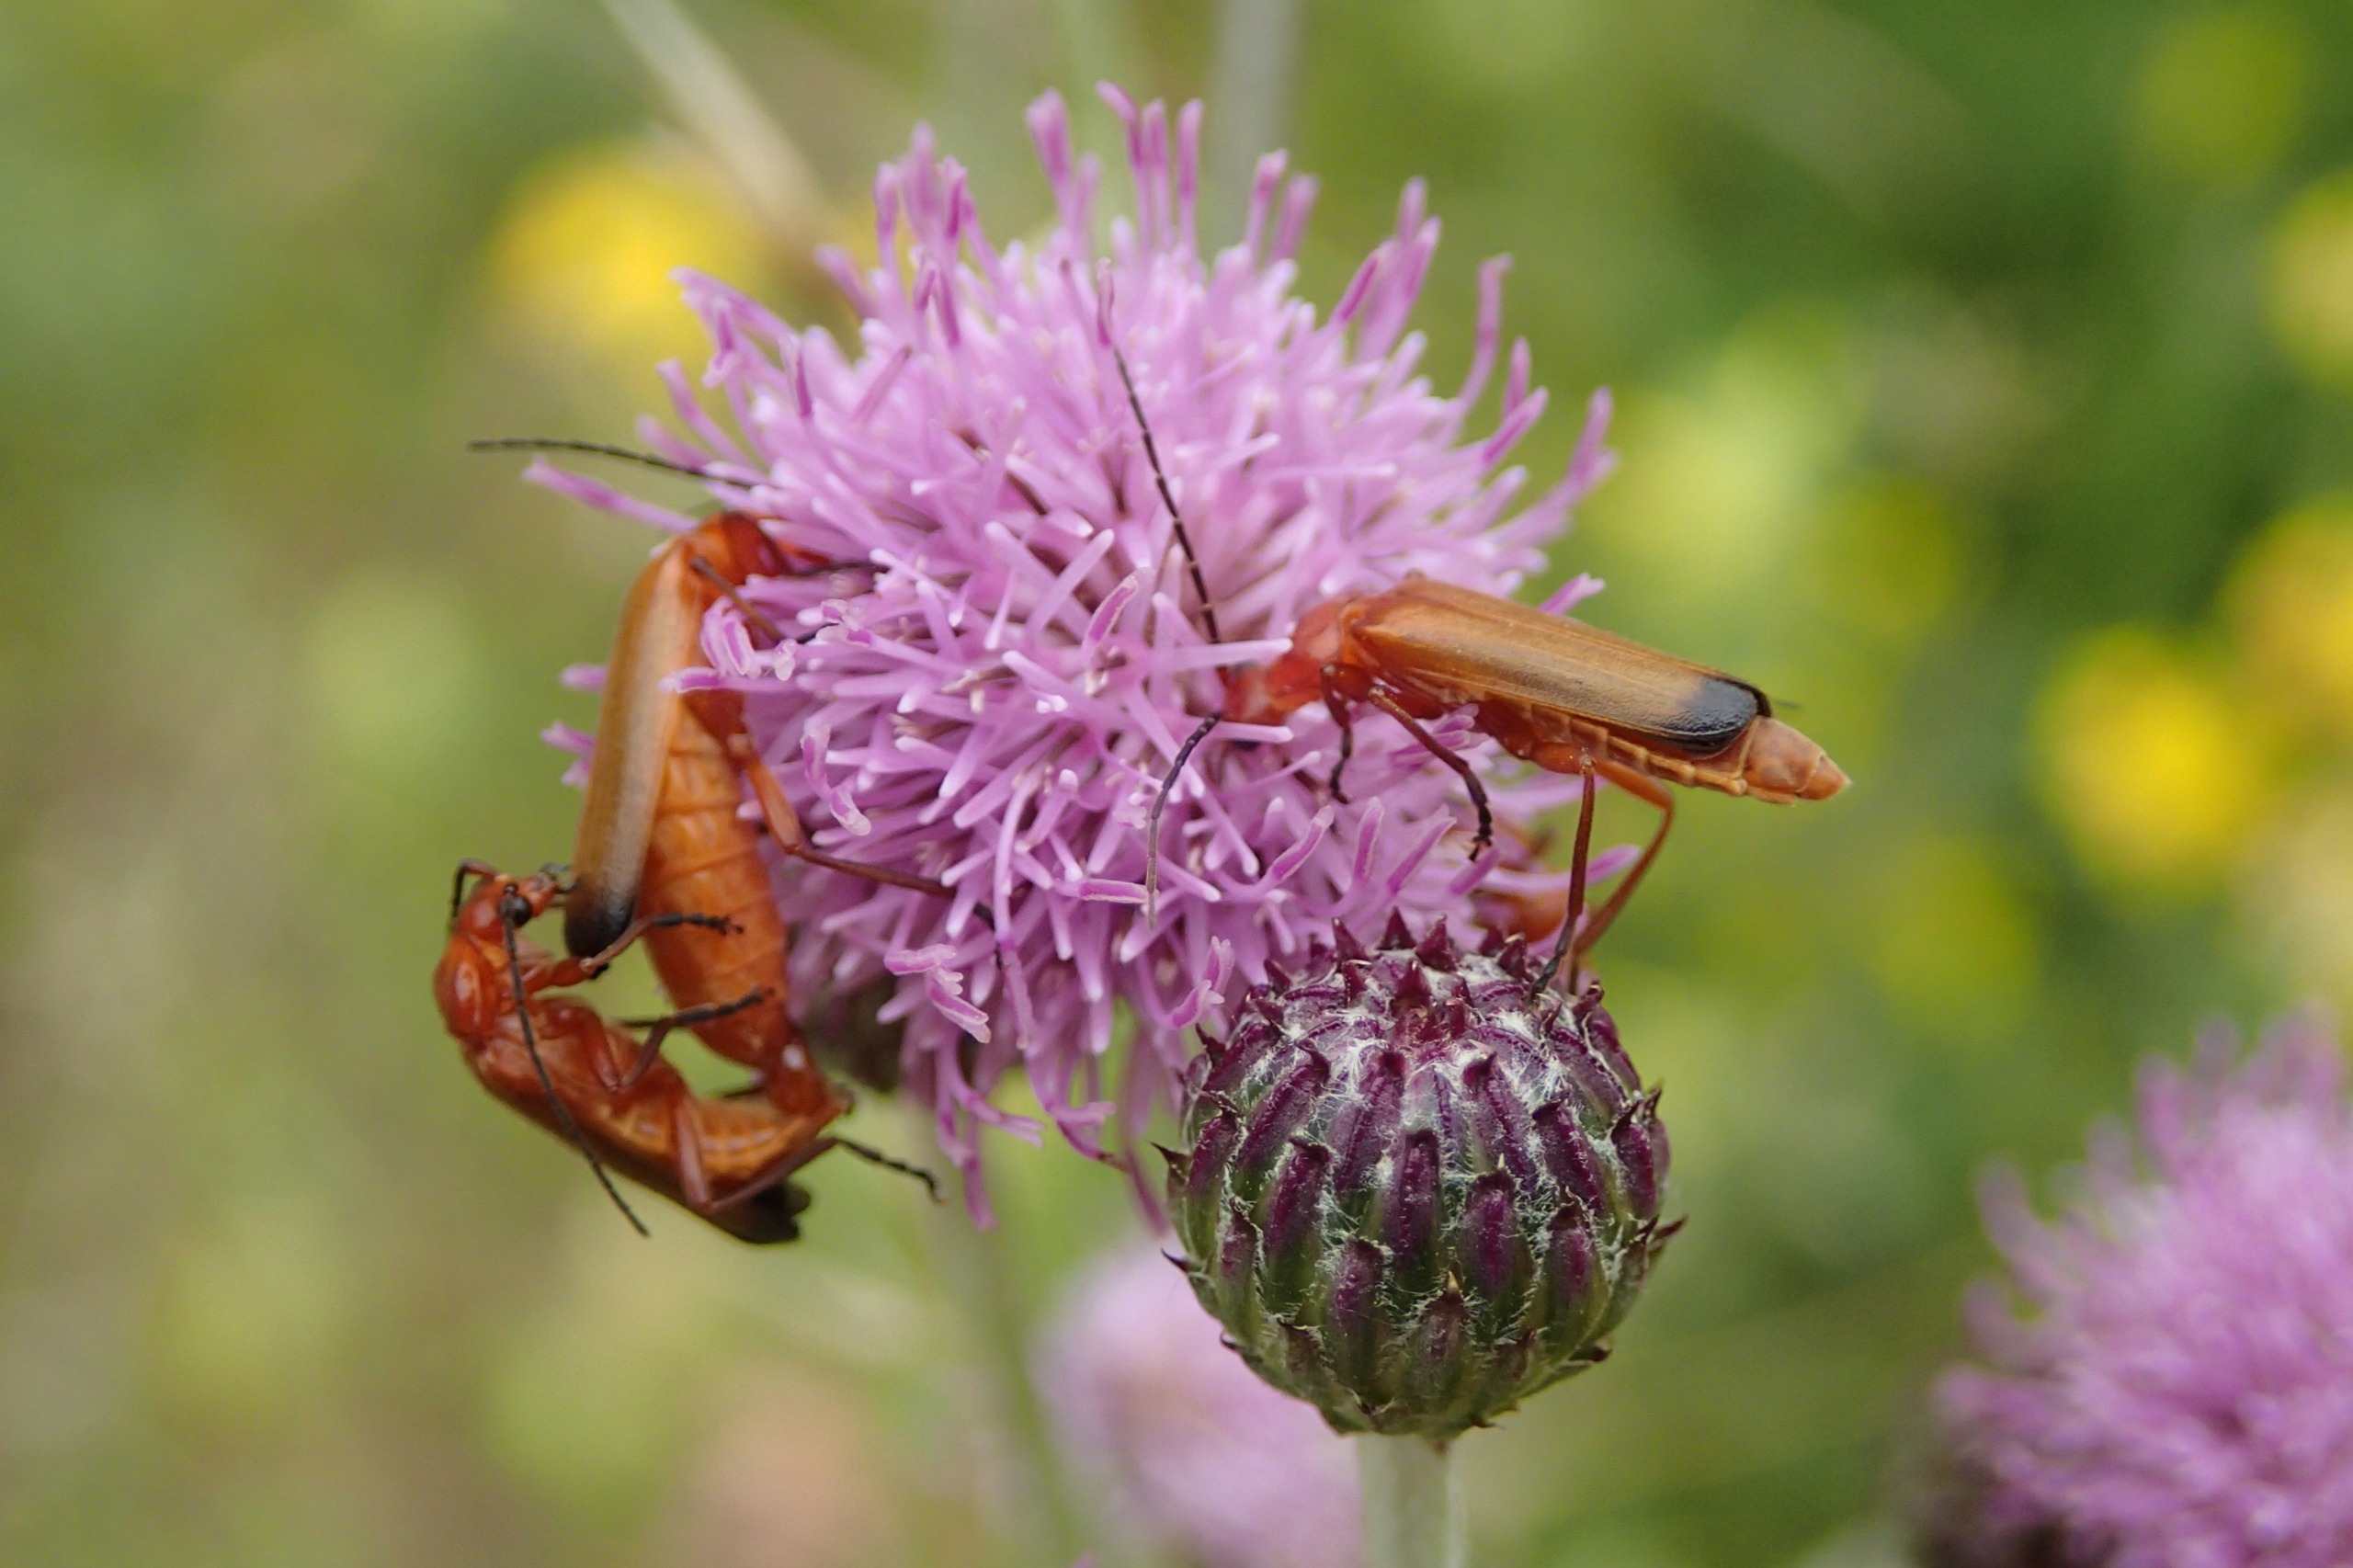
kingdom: Animalia
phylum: Arthropoda
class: Insecta
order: Coleoptera
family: Cantharidae
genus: Rhagonycha
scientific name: Rhagonycha fulva
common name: Præstebille
